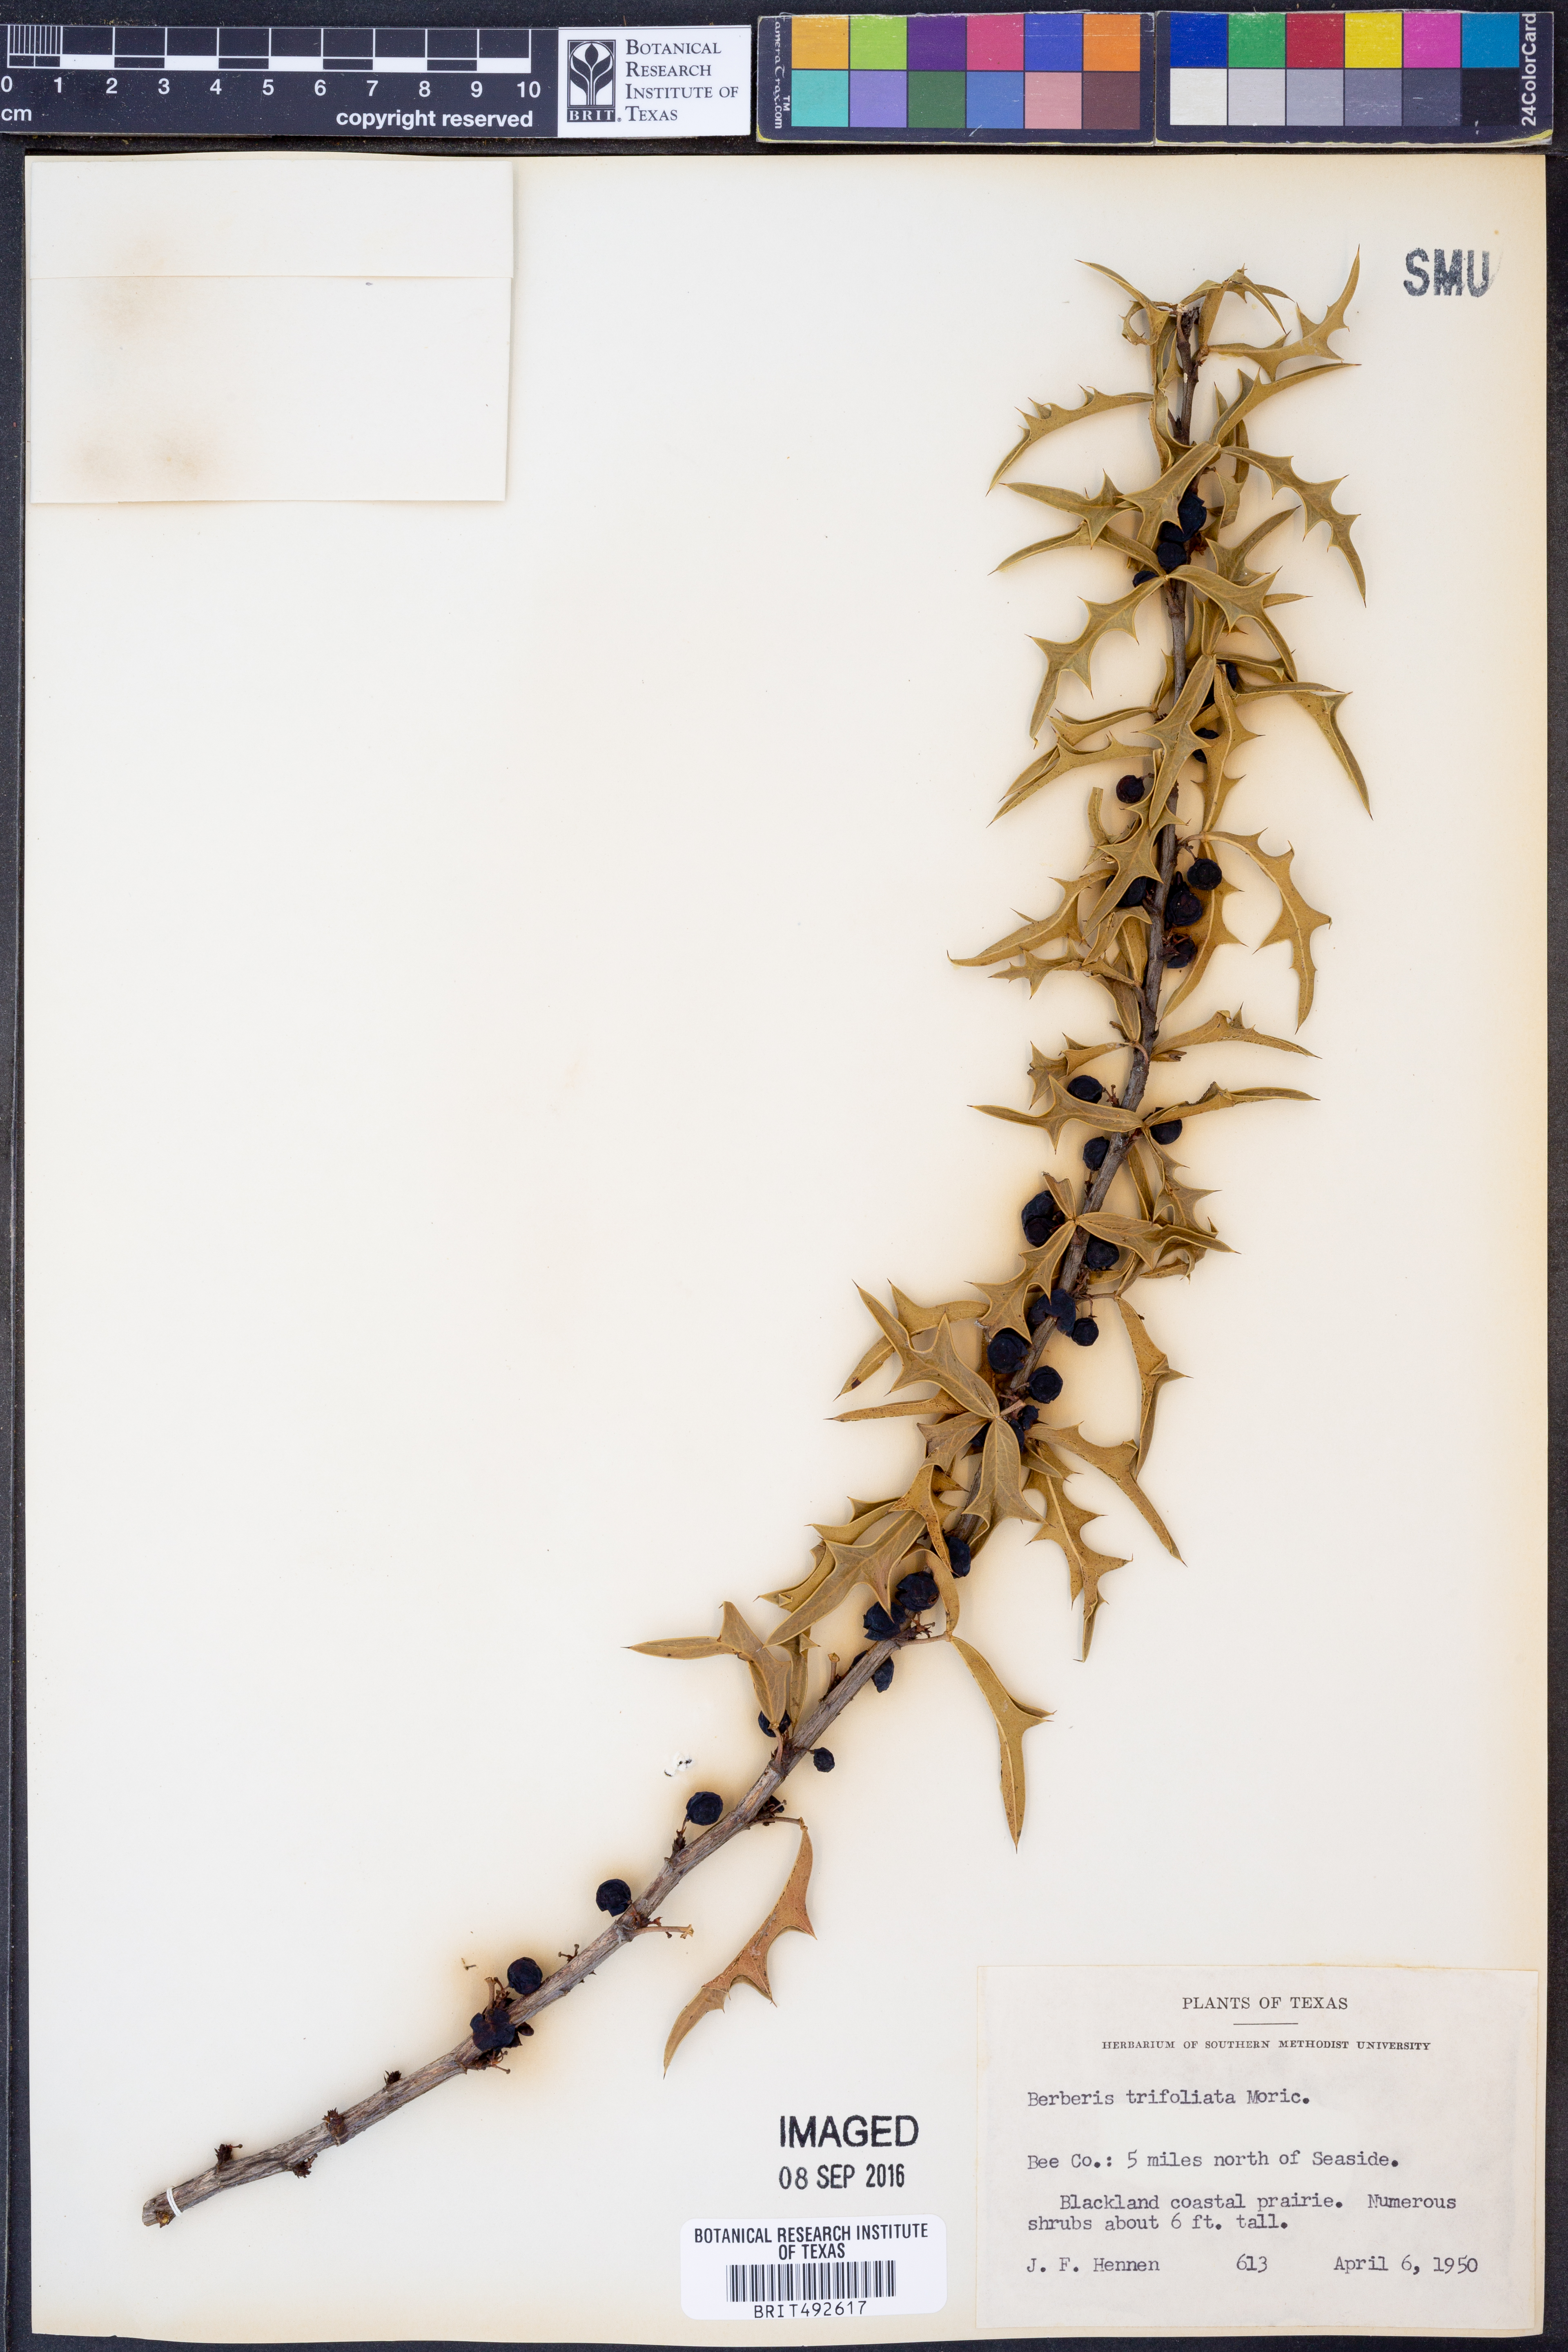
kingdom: Plantae
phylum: Tracheophyta
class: Magnoliopsida
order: Ranunculales
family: Berberidaceae
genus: Alloberberis
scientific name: Alloberberis fremontii
